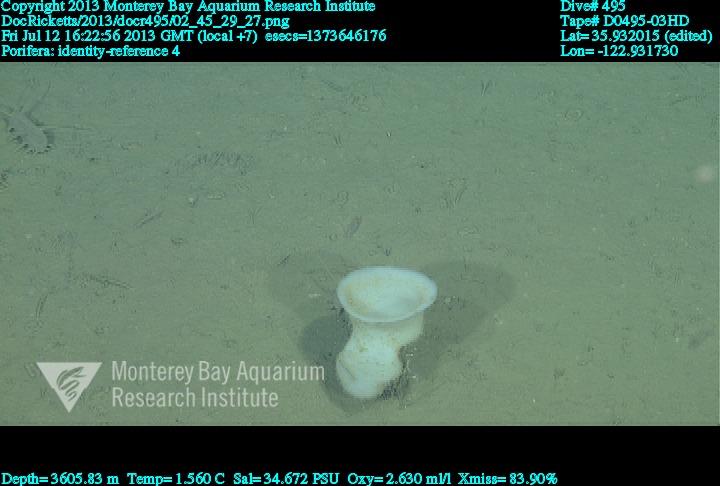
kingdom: Animalia
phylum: Porifera
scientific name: Porifera
